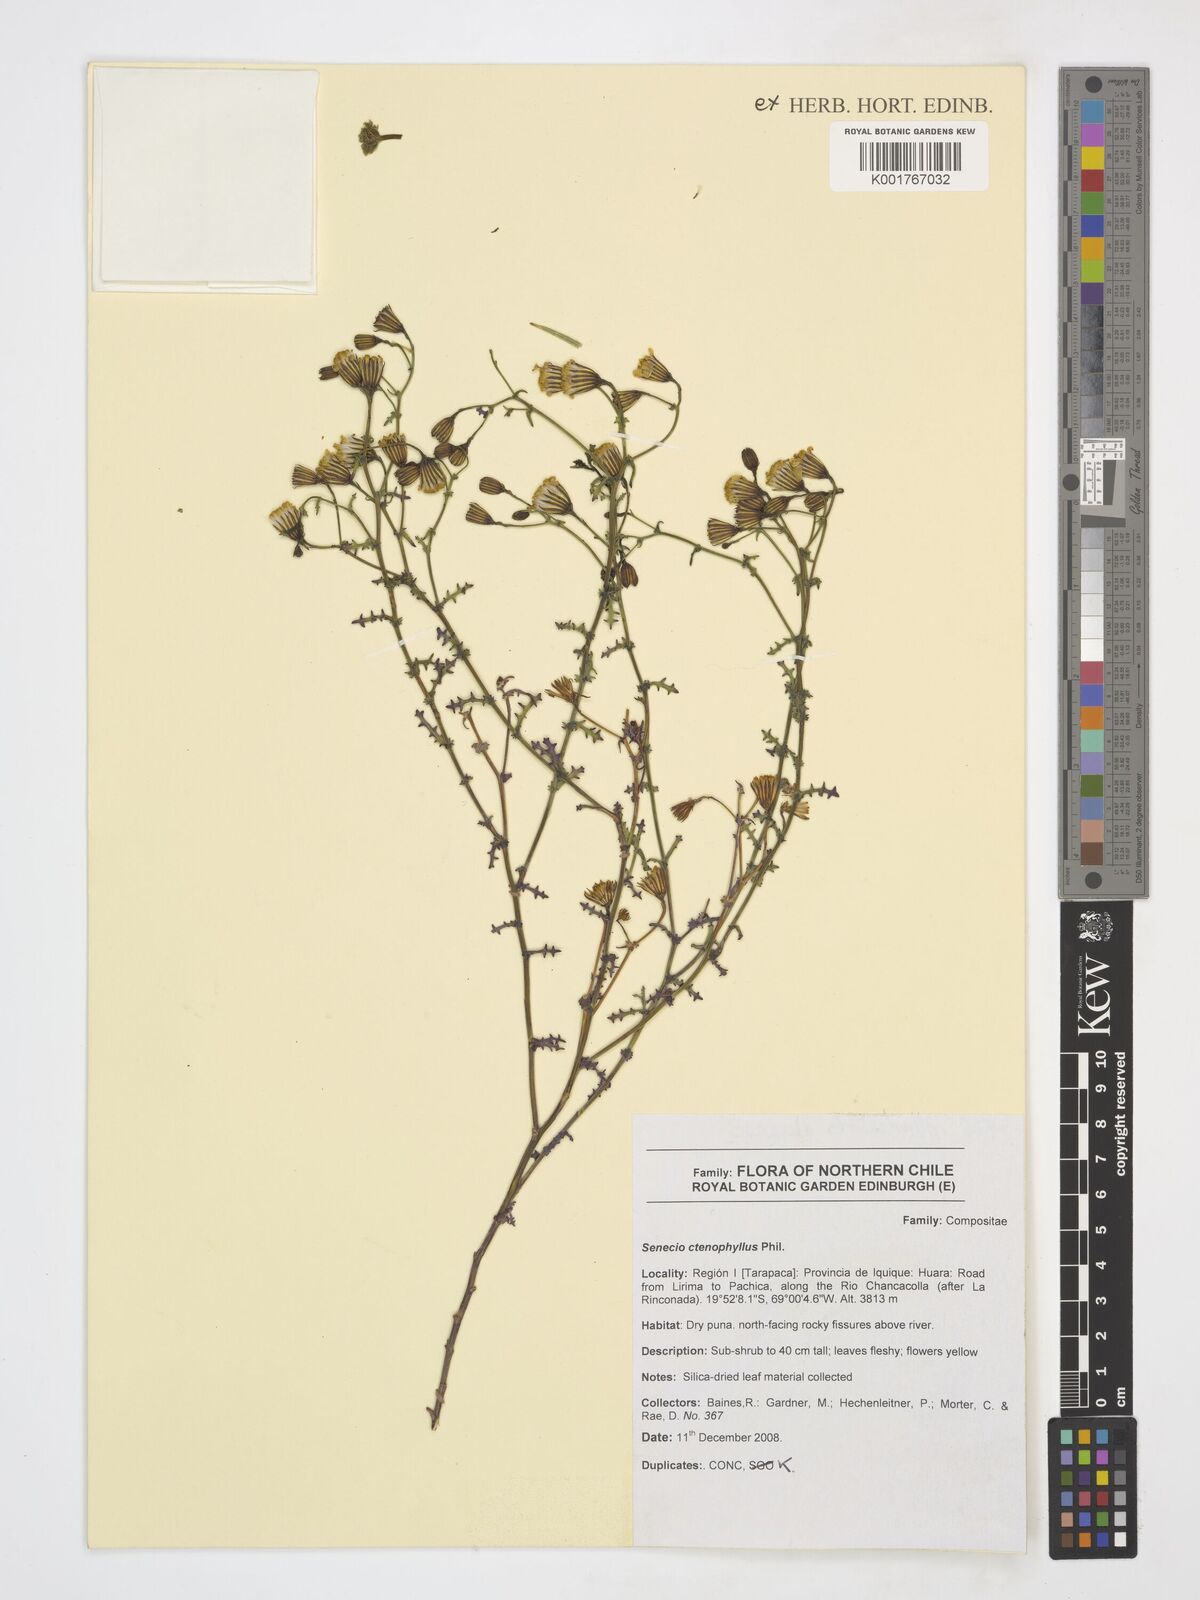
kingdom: Plantae
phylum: Tracheophyta
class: Magnoliopsida
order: Asterales
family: Asteraceae
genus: Senecio
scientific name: Senecio ctenophyllus
